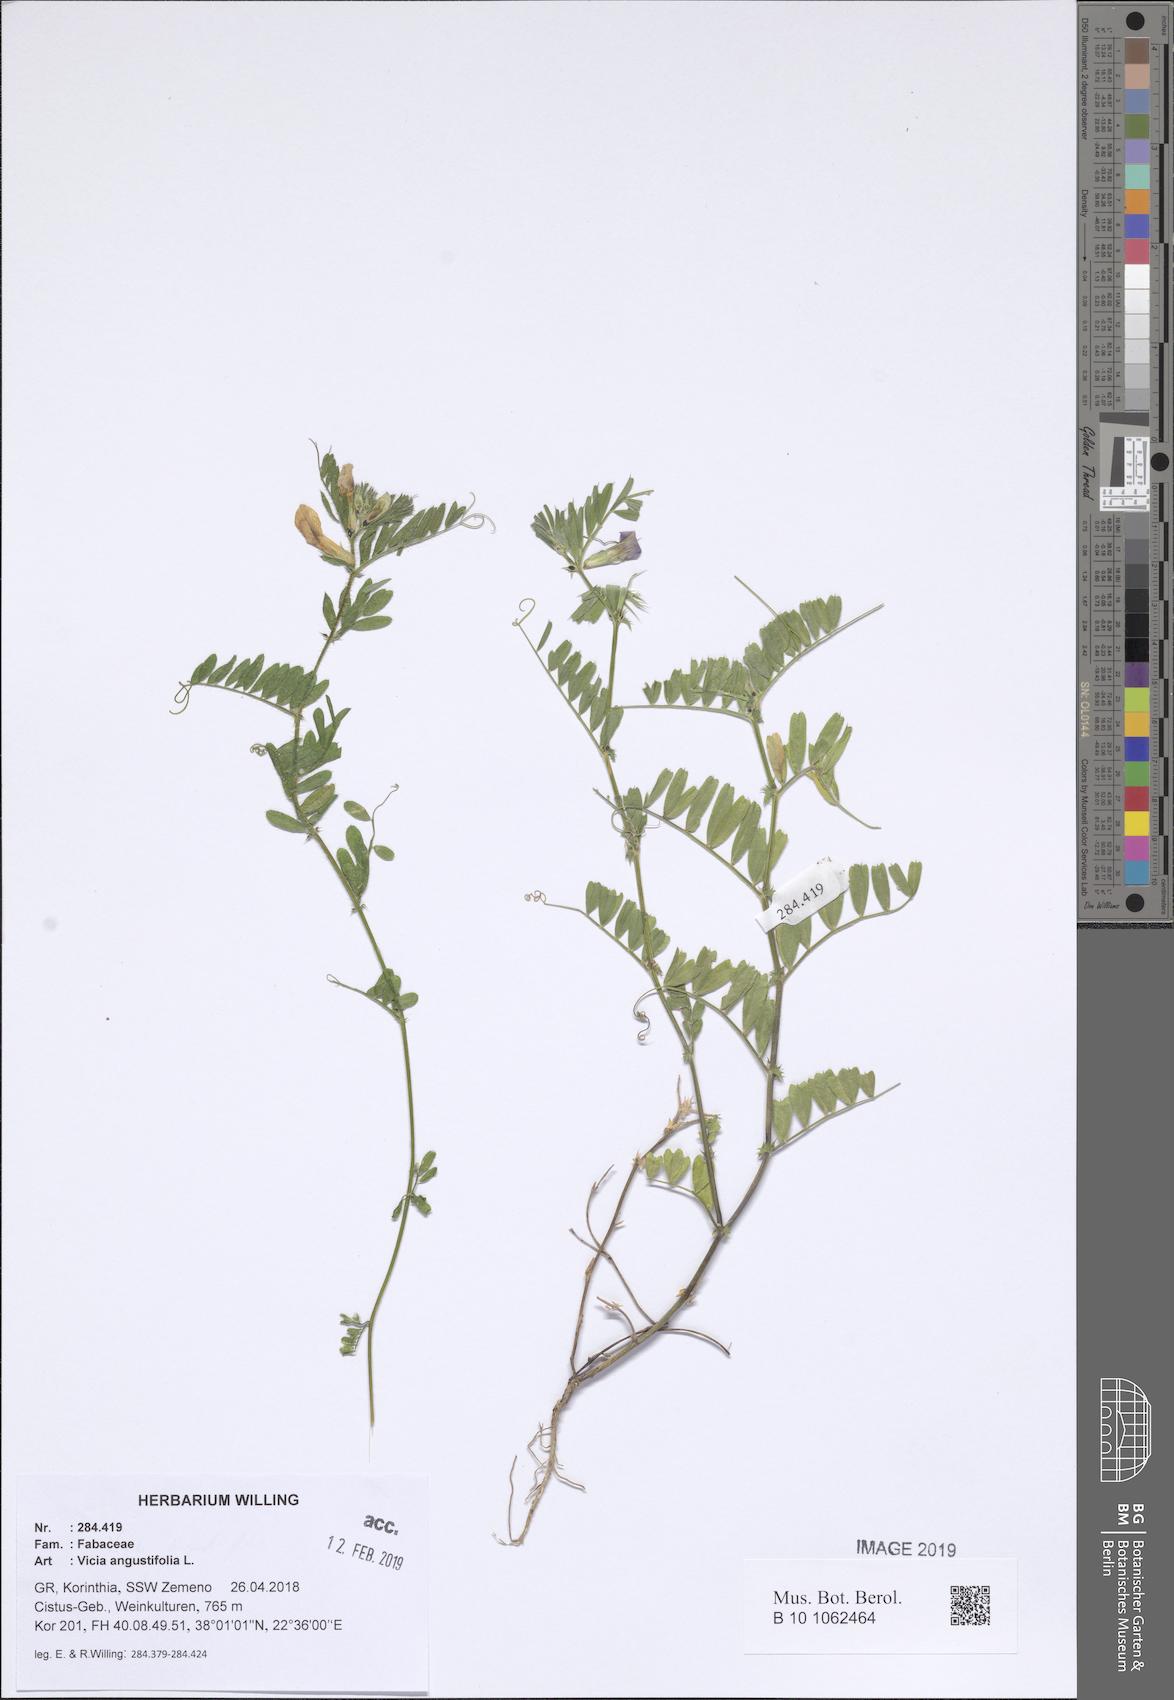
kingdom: Plantae
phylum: Tracheophyta
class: Magnoliopsida
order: Fabales
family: Fabaceae
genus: Vicia
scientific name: Vicia sativa
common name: Garden vetch
